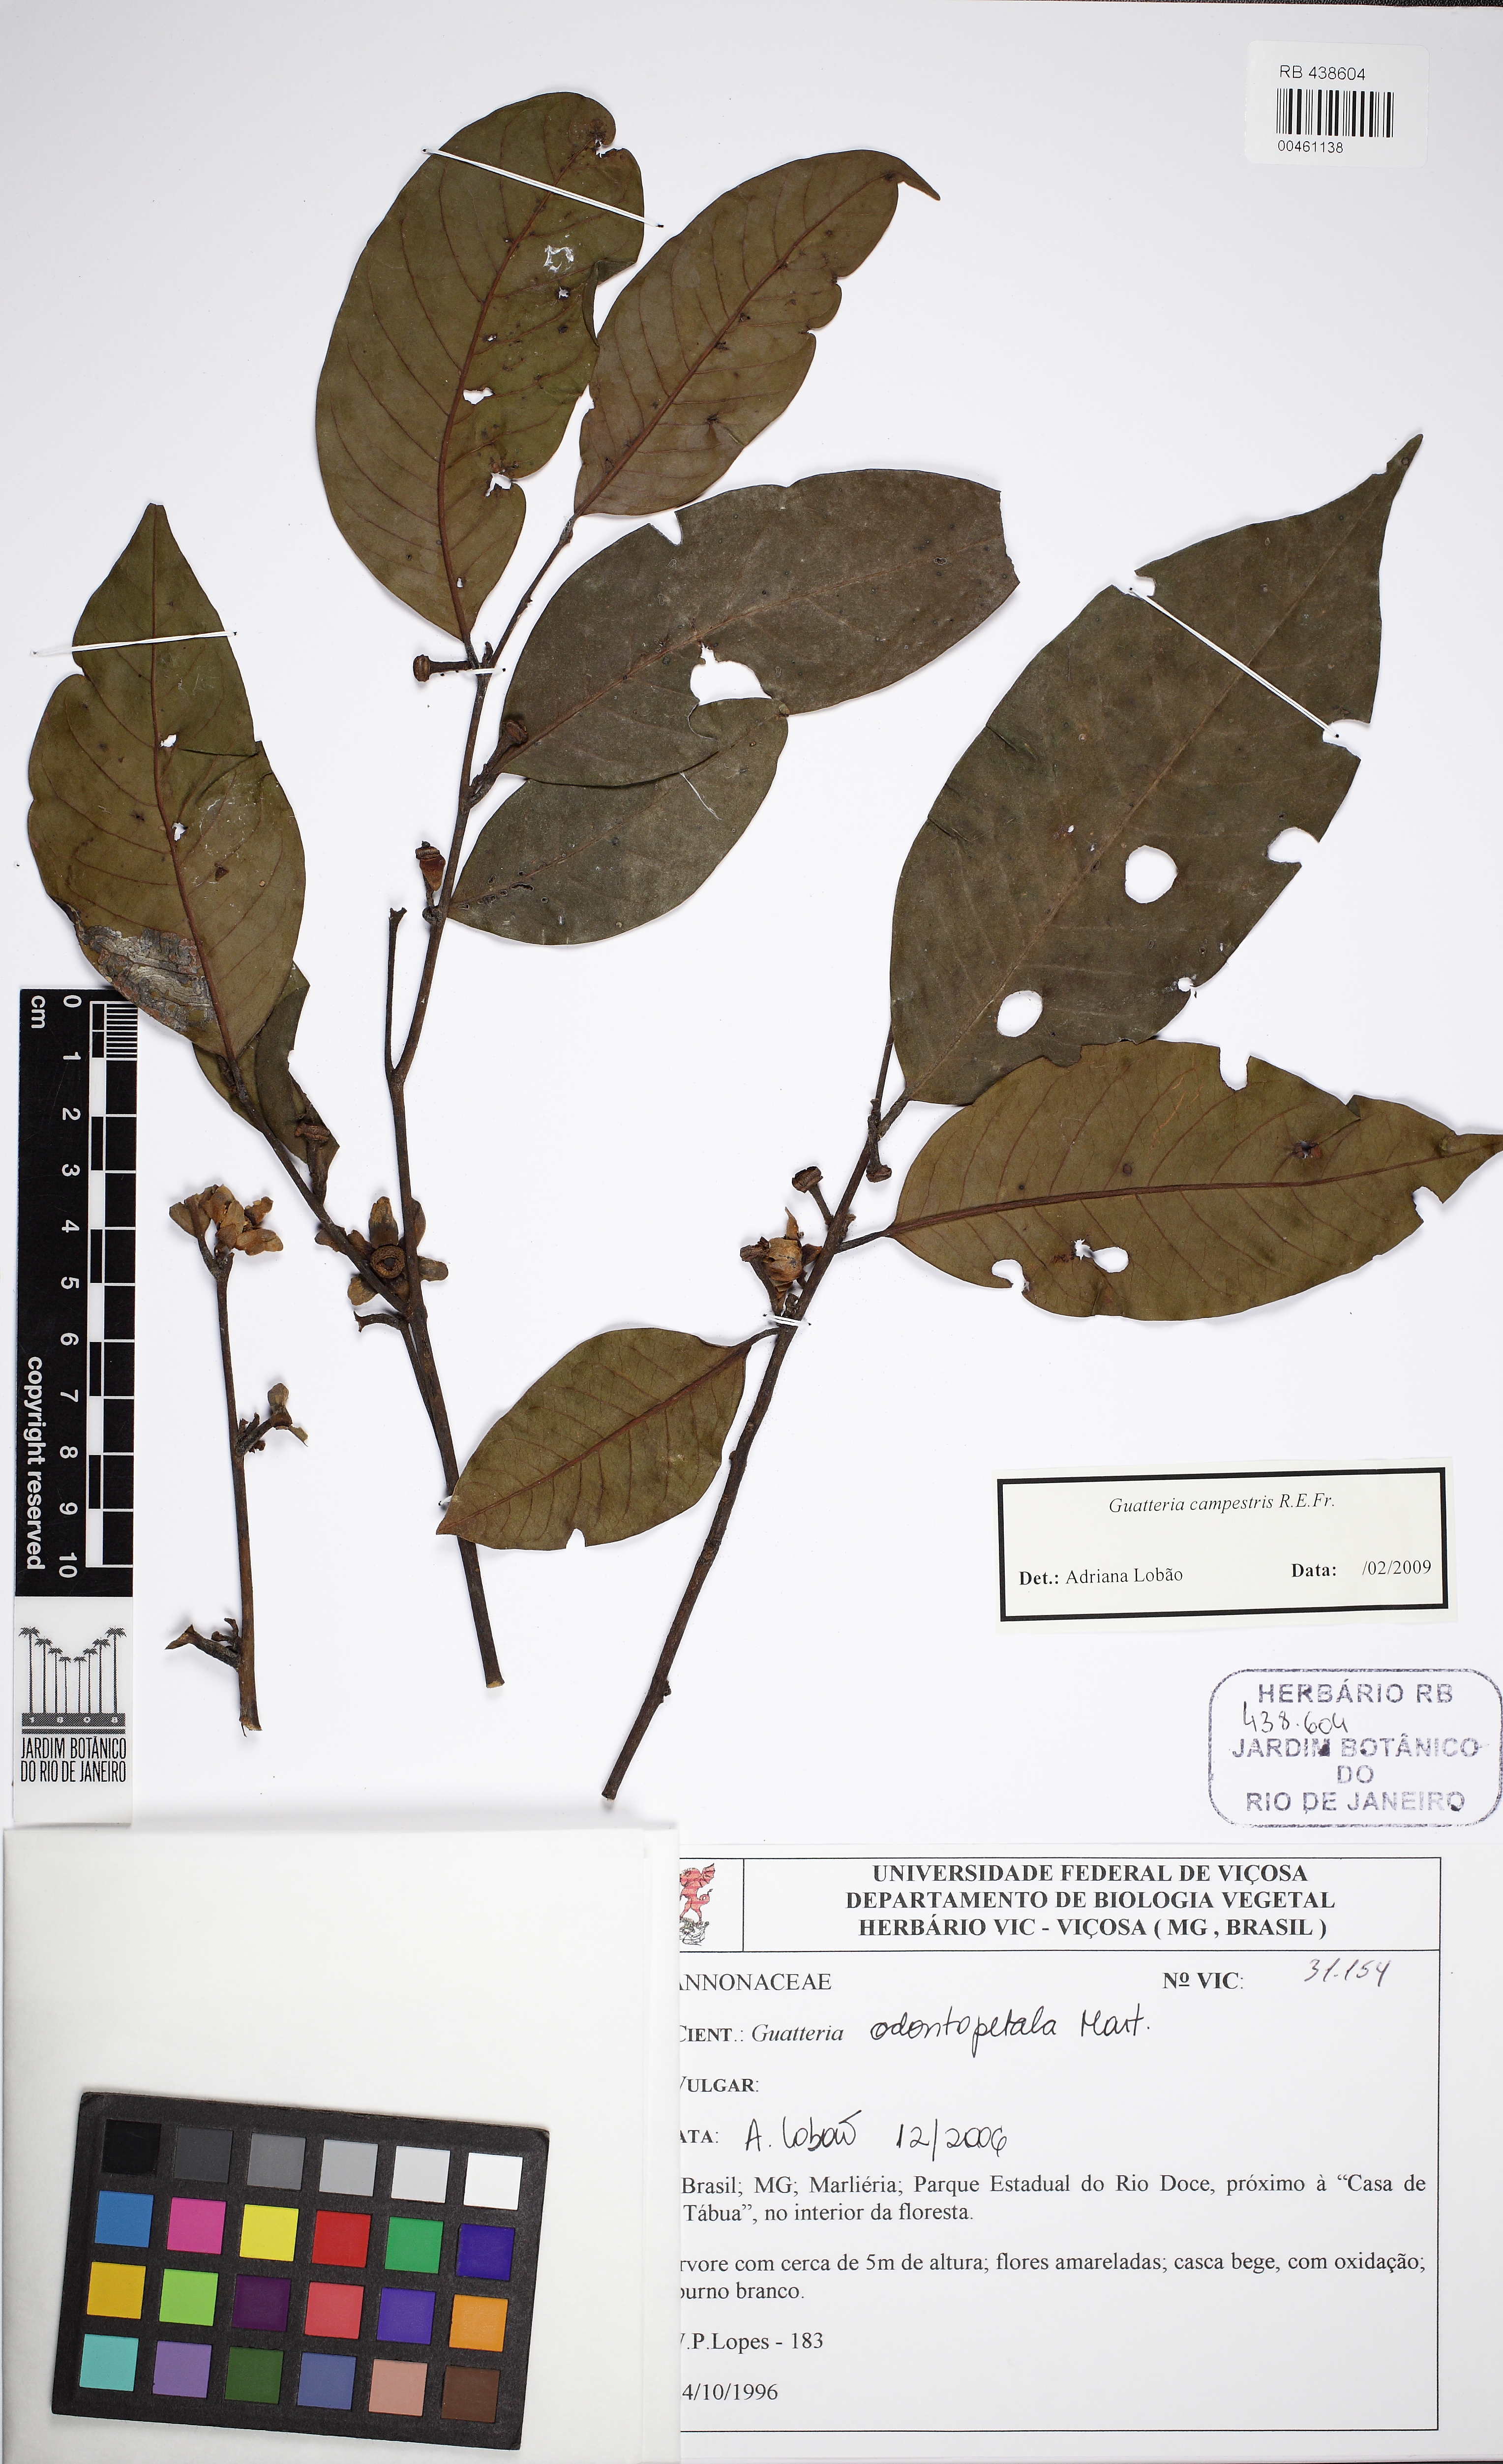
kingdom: Plantae
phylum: Tracheophyta
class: Magnoliopsida
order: Magnoliales
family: Annonaceae
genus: Guatteria
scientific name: Guatteria campestris
